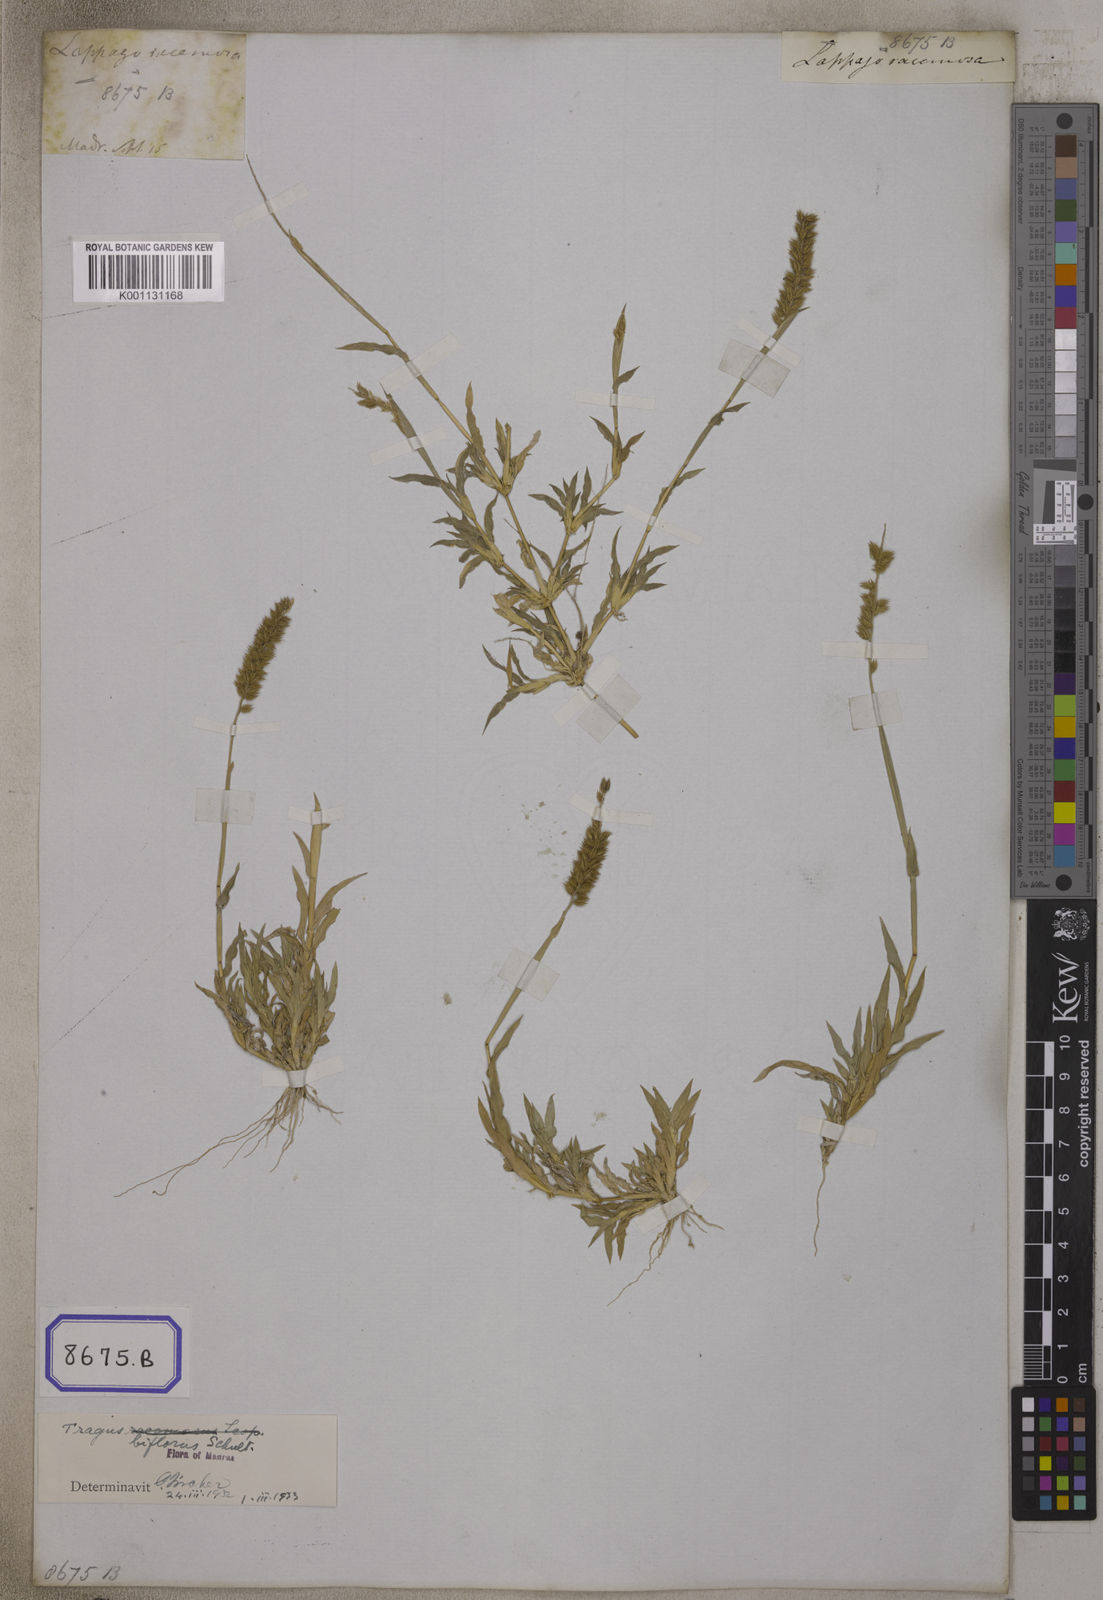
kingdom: Plantae
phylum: Tracheophyta
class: Liliopsida
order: Poales
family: Poaceae
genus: Tragus
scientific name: Tragus racemosus
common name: European bur-grass
